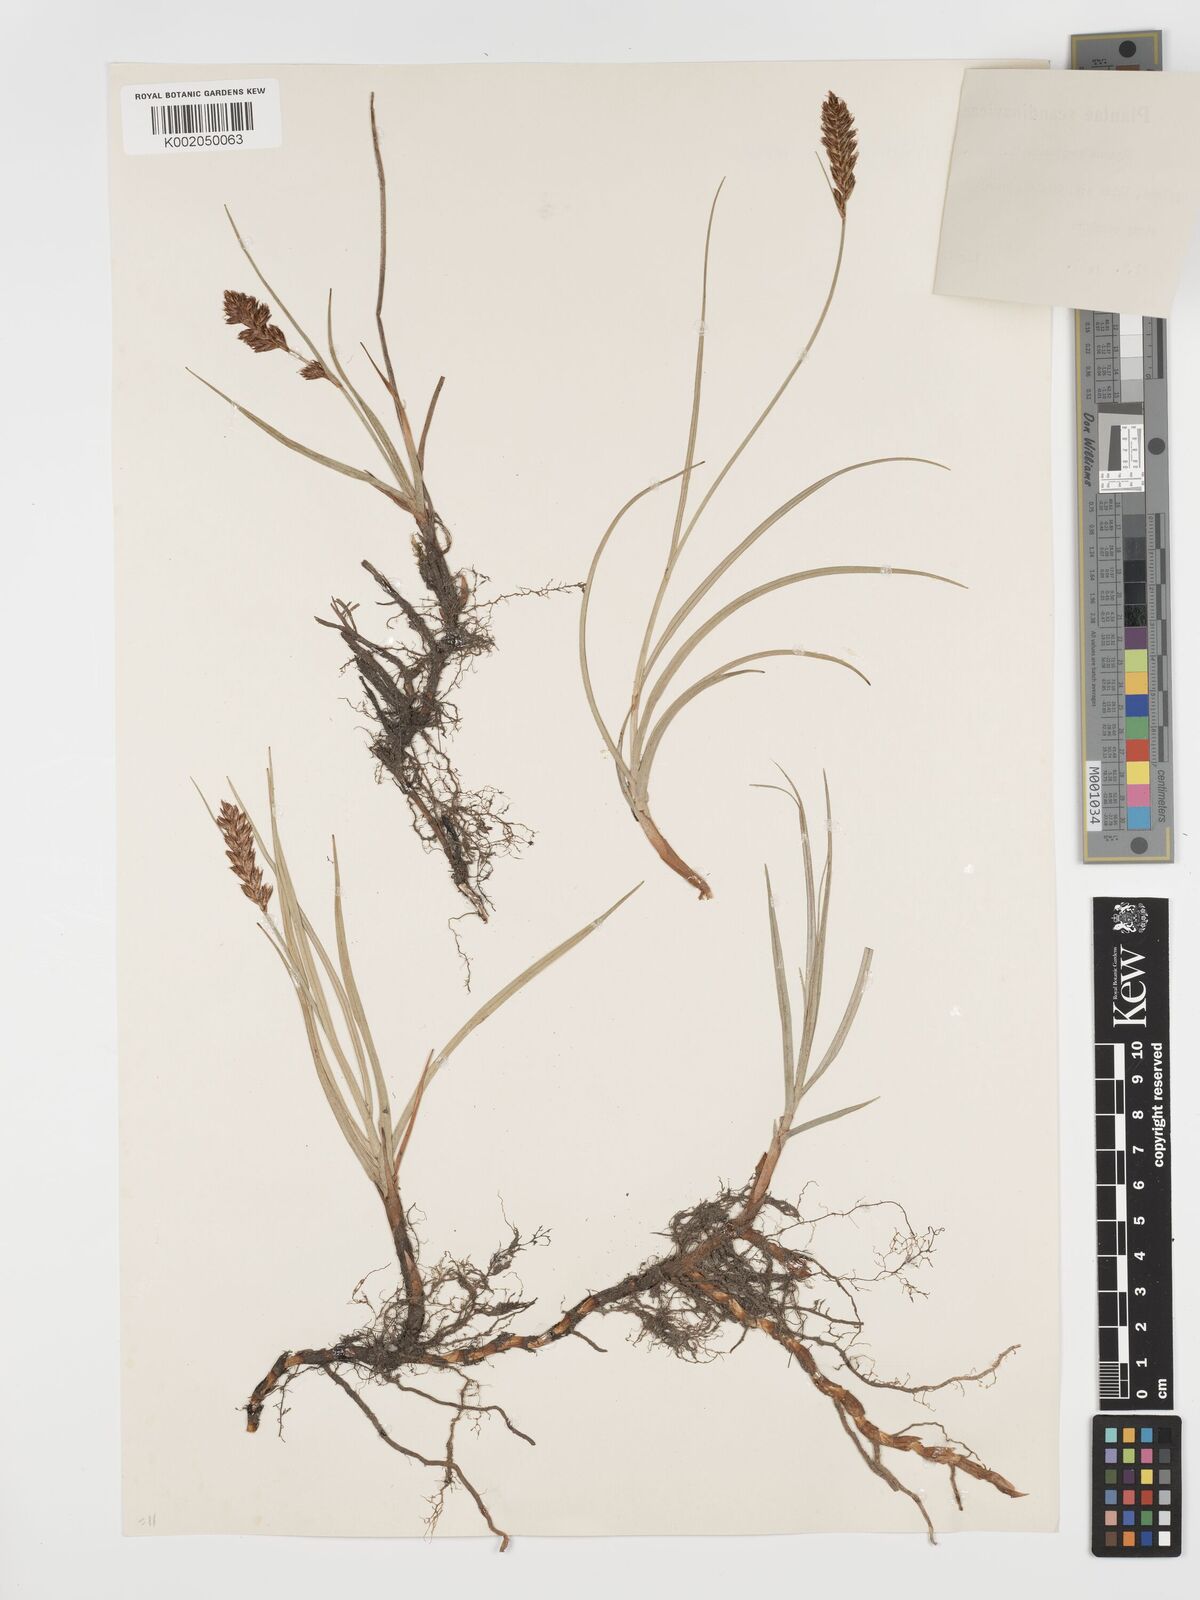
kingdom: Plantae
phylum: Tracheophyta
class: Liliopsida
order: Poales
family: Cyperaceae
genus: Blysmus
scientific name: Blysmus compressus
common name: Flat-sedge
